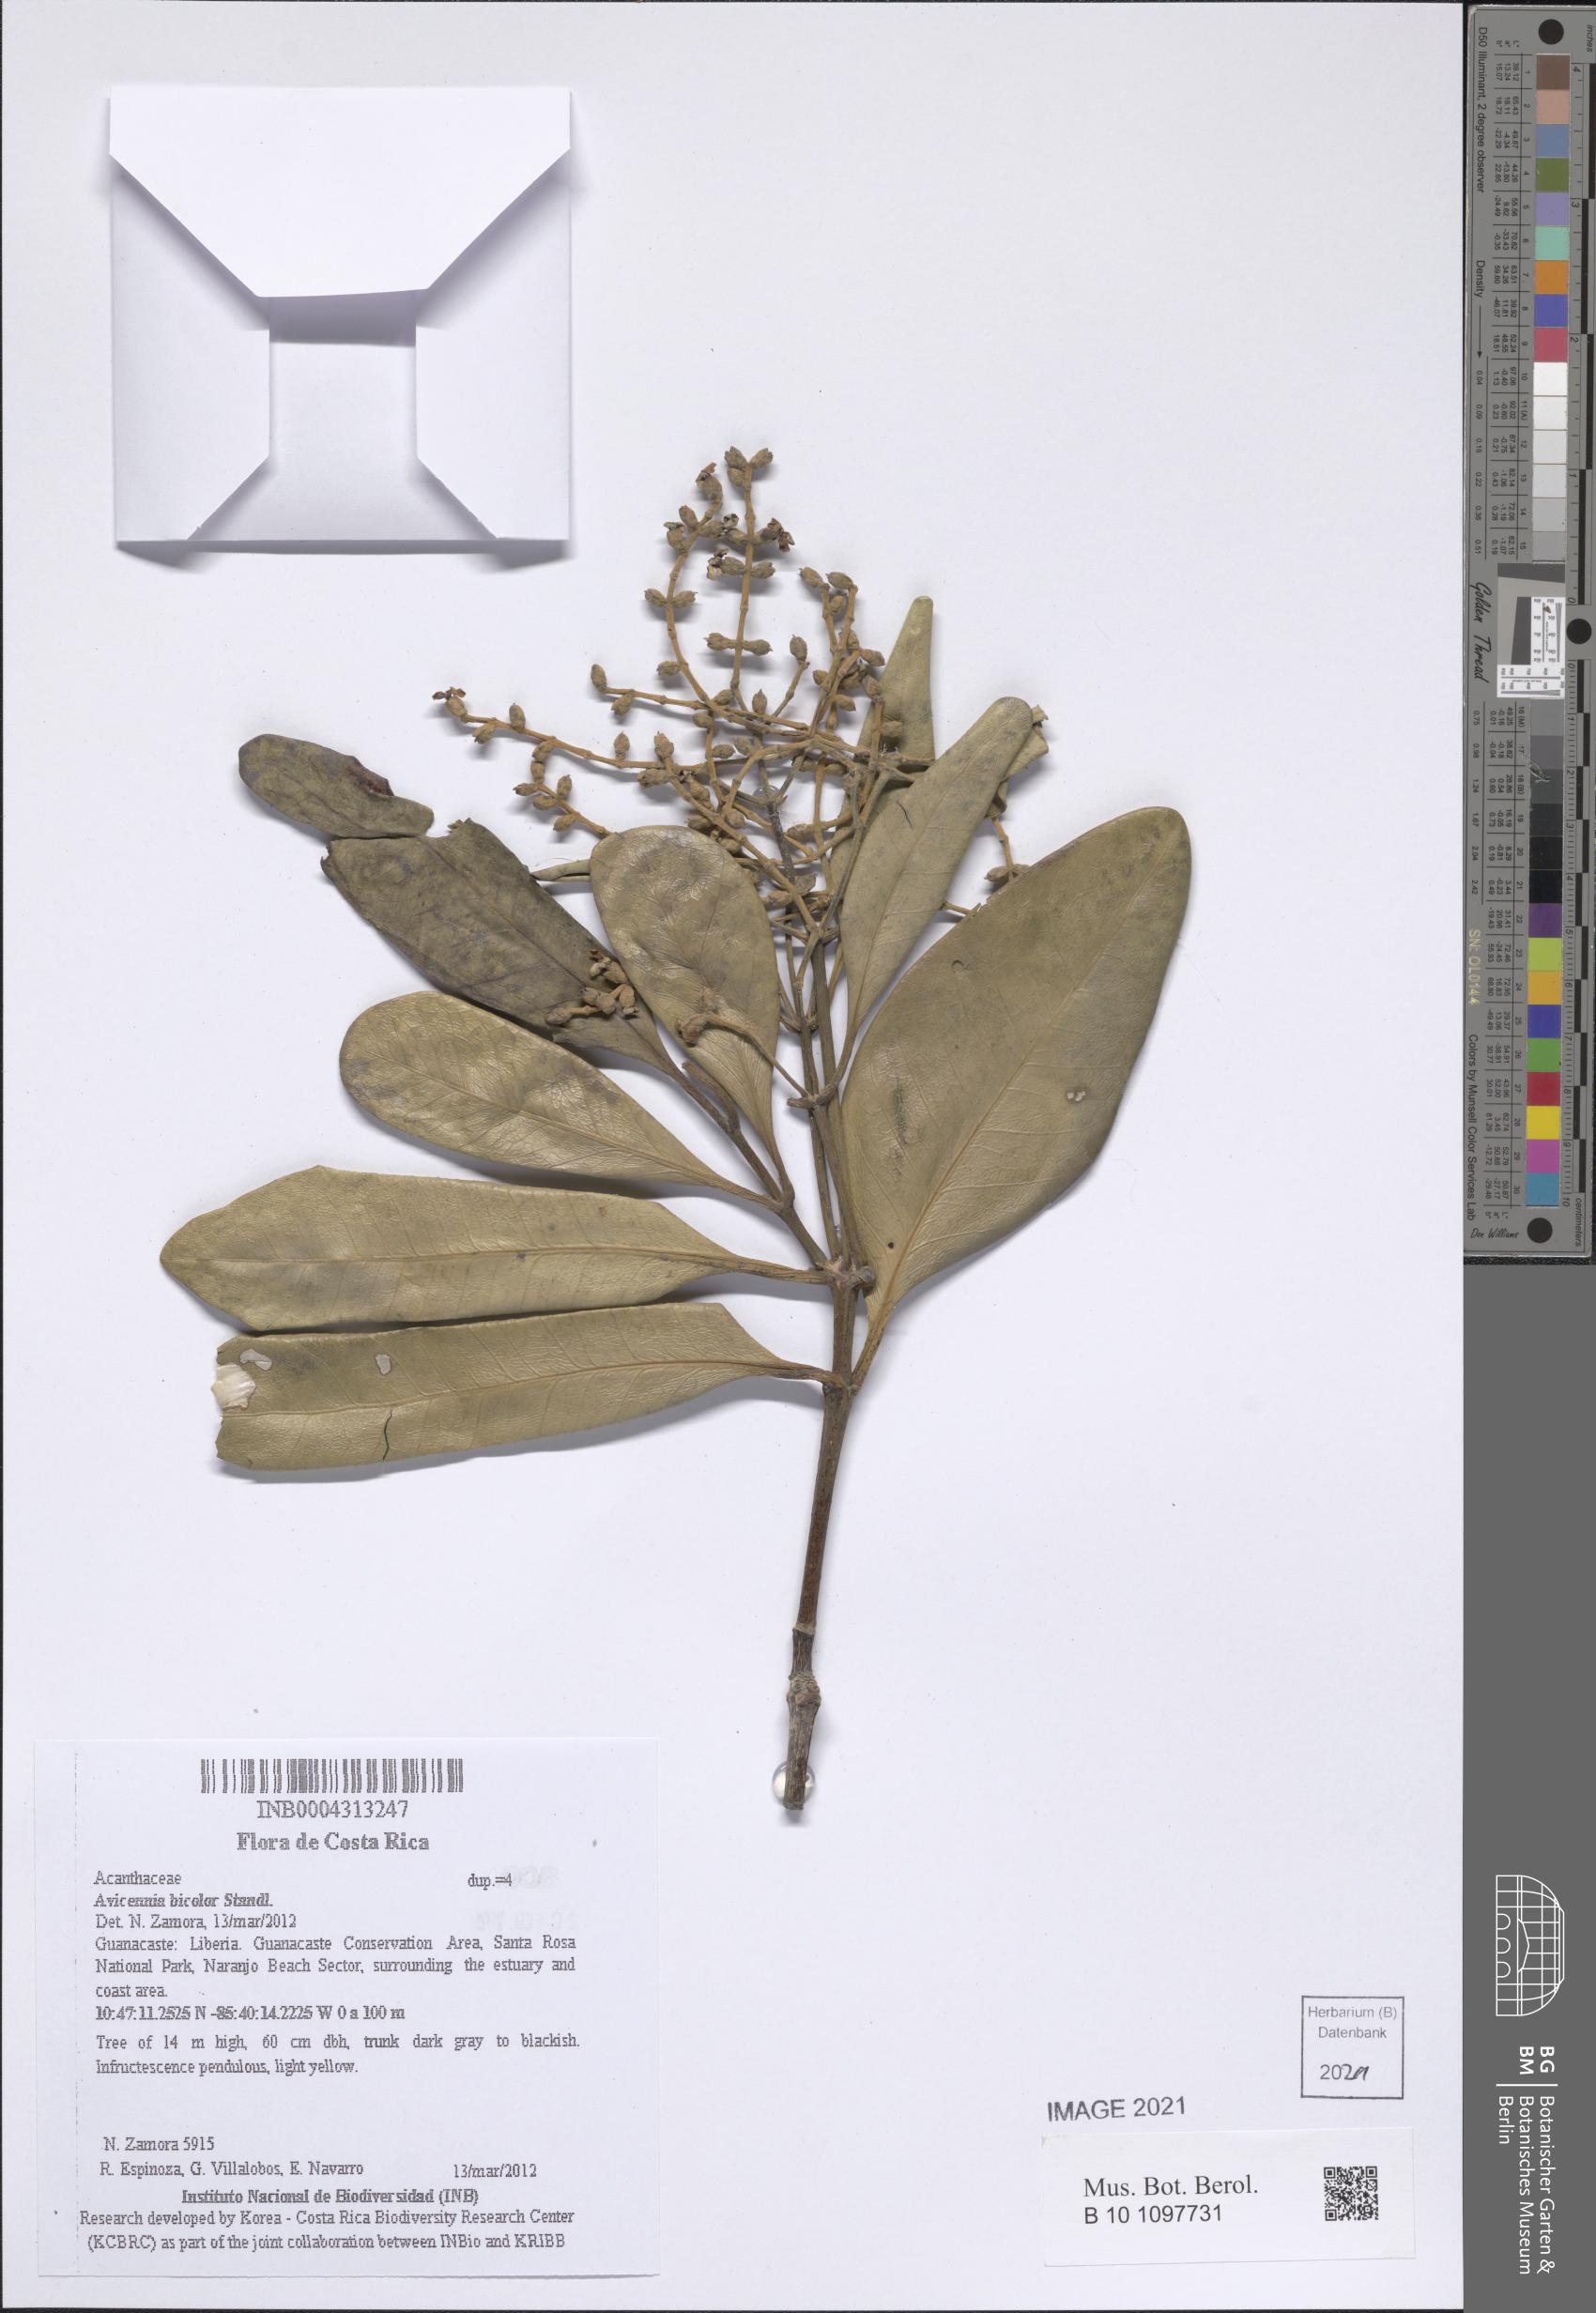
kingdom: Plantae
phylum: Tracheophyta
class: Magnoliopsida
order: Lamiales
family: Acanthaceae
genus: Avicennia
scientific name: Avicennia bicolor
